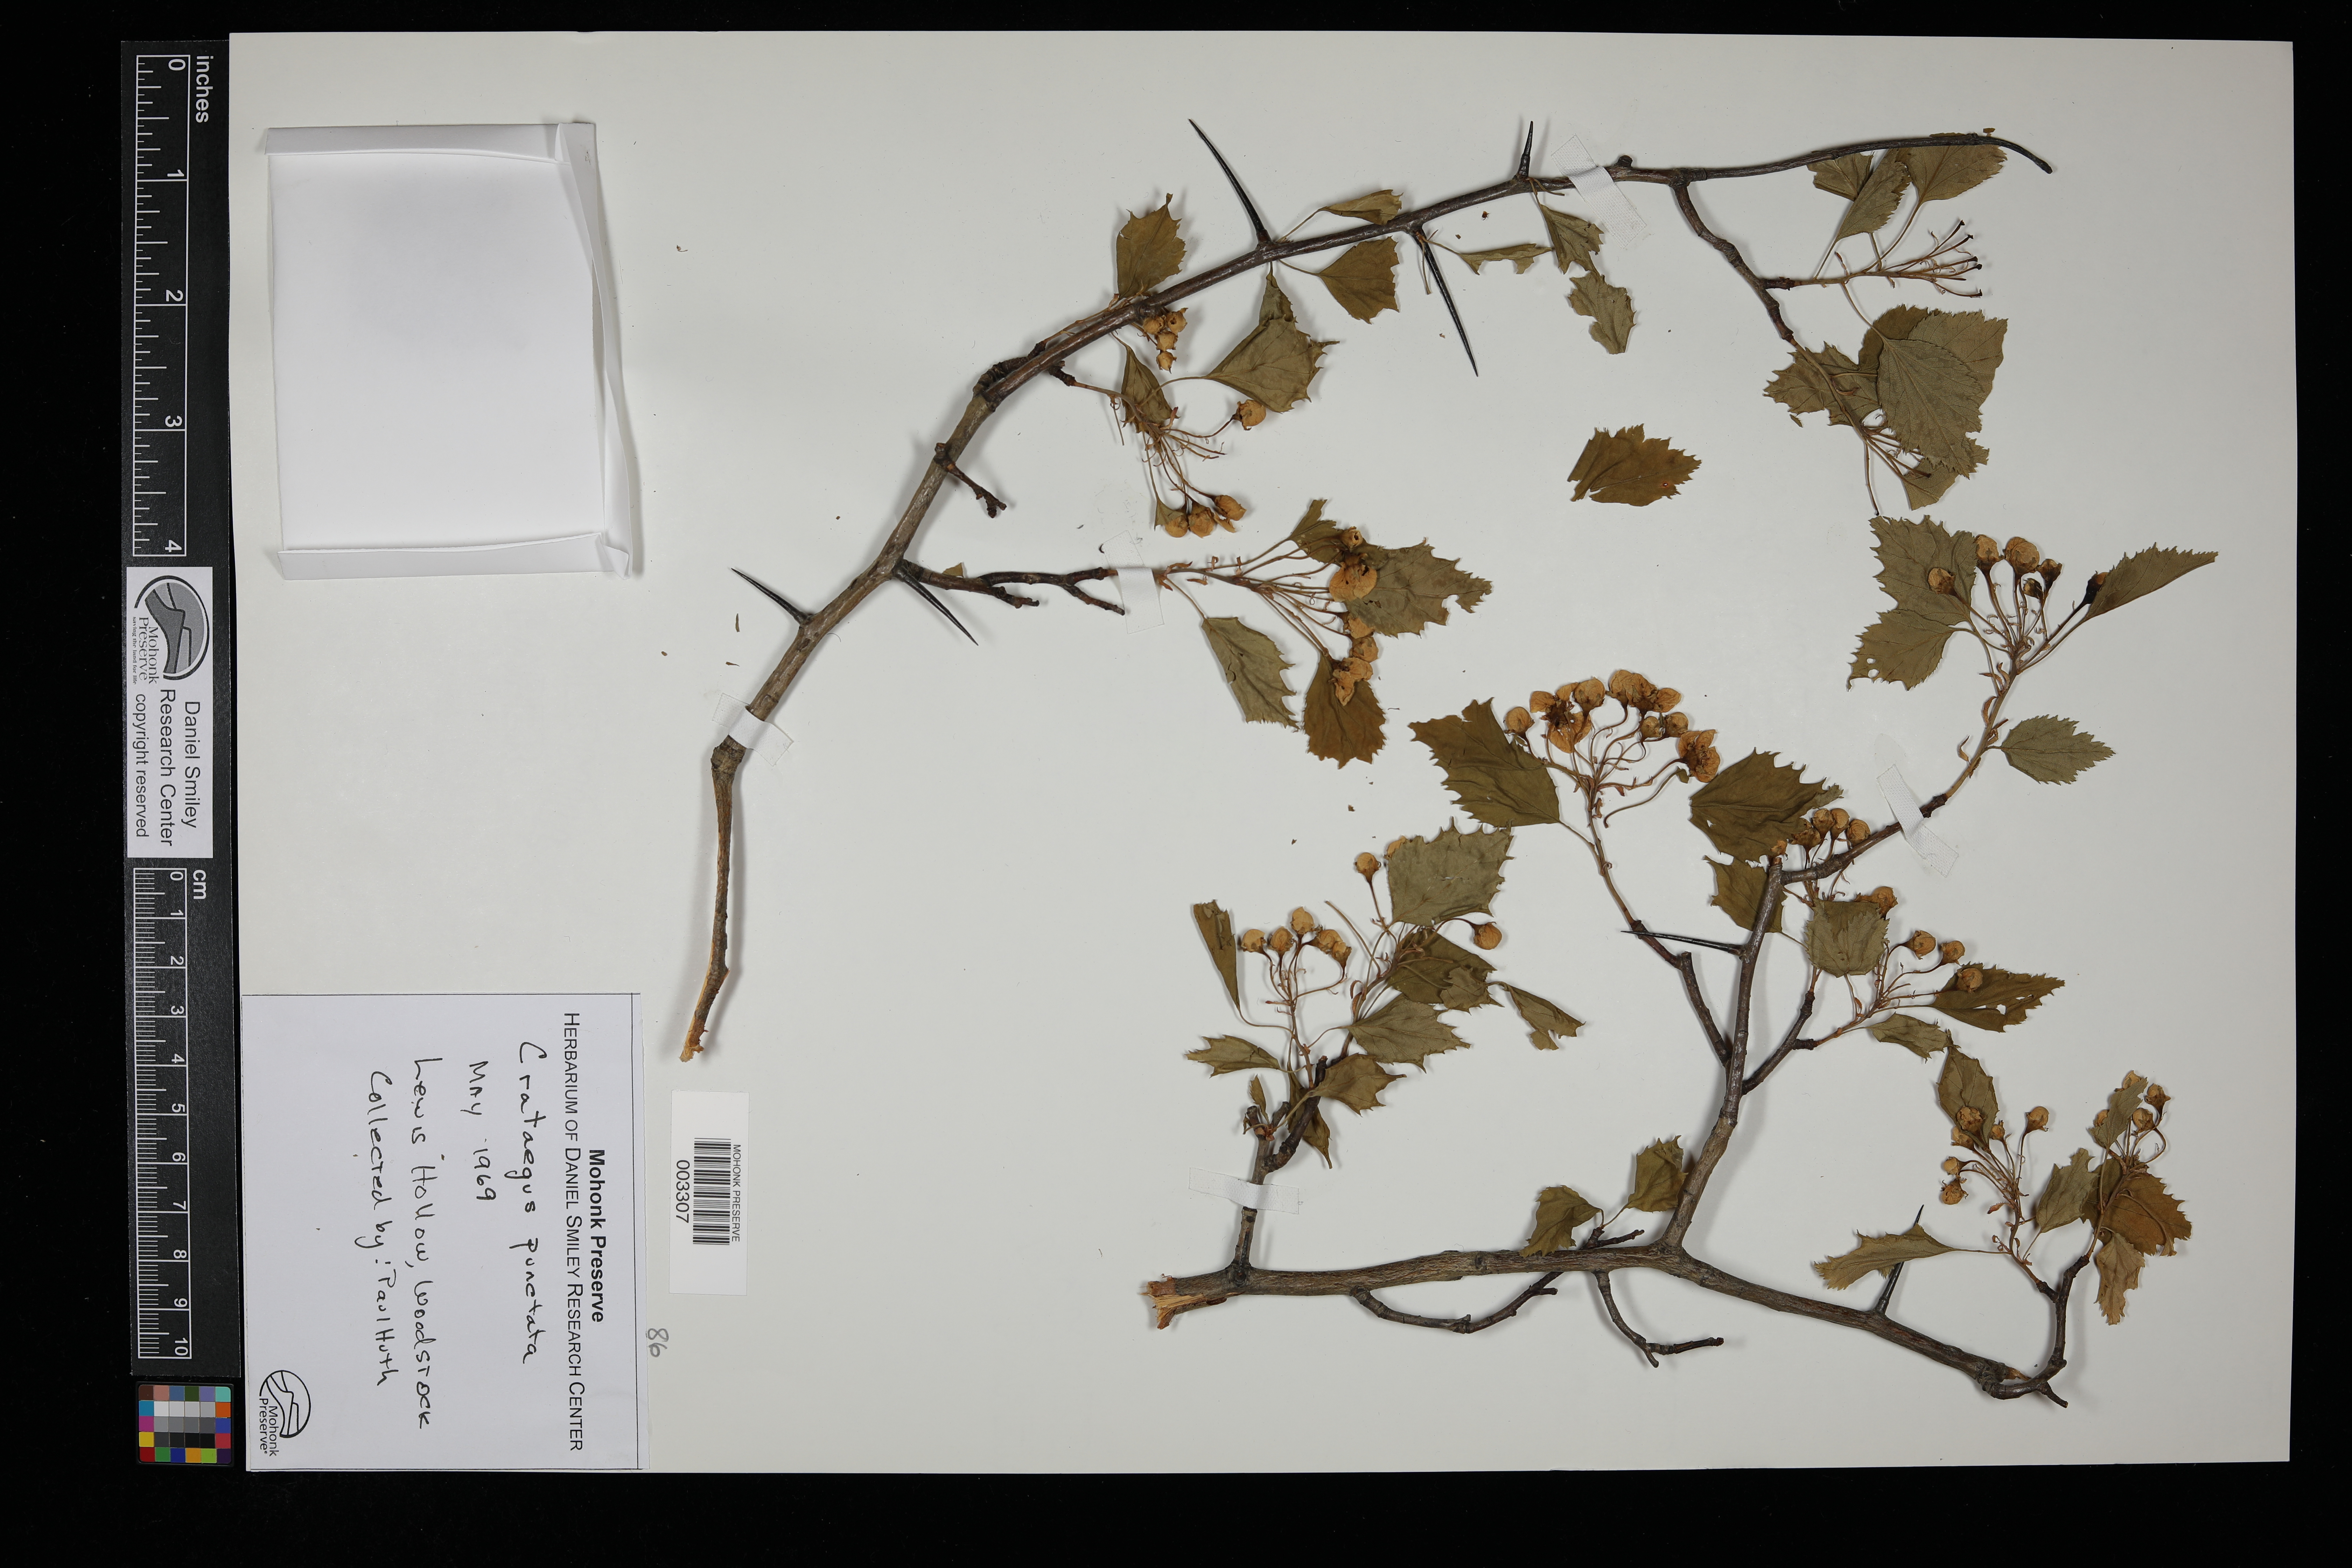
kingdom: Plantae
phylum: Tracheophyta
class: Magnoliopsida
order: Rosales
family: Rosaceae
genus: Crataegus
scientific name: Crataegus punctata
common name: Dotted hawthorn
